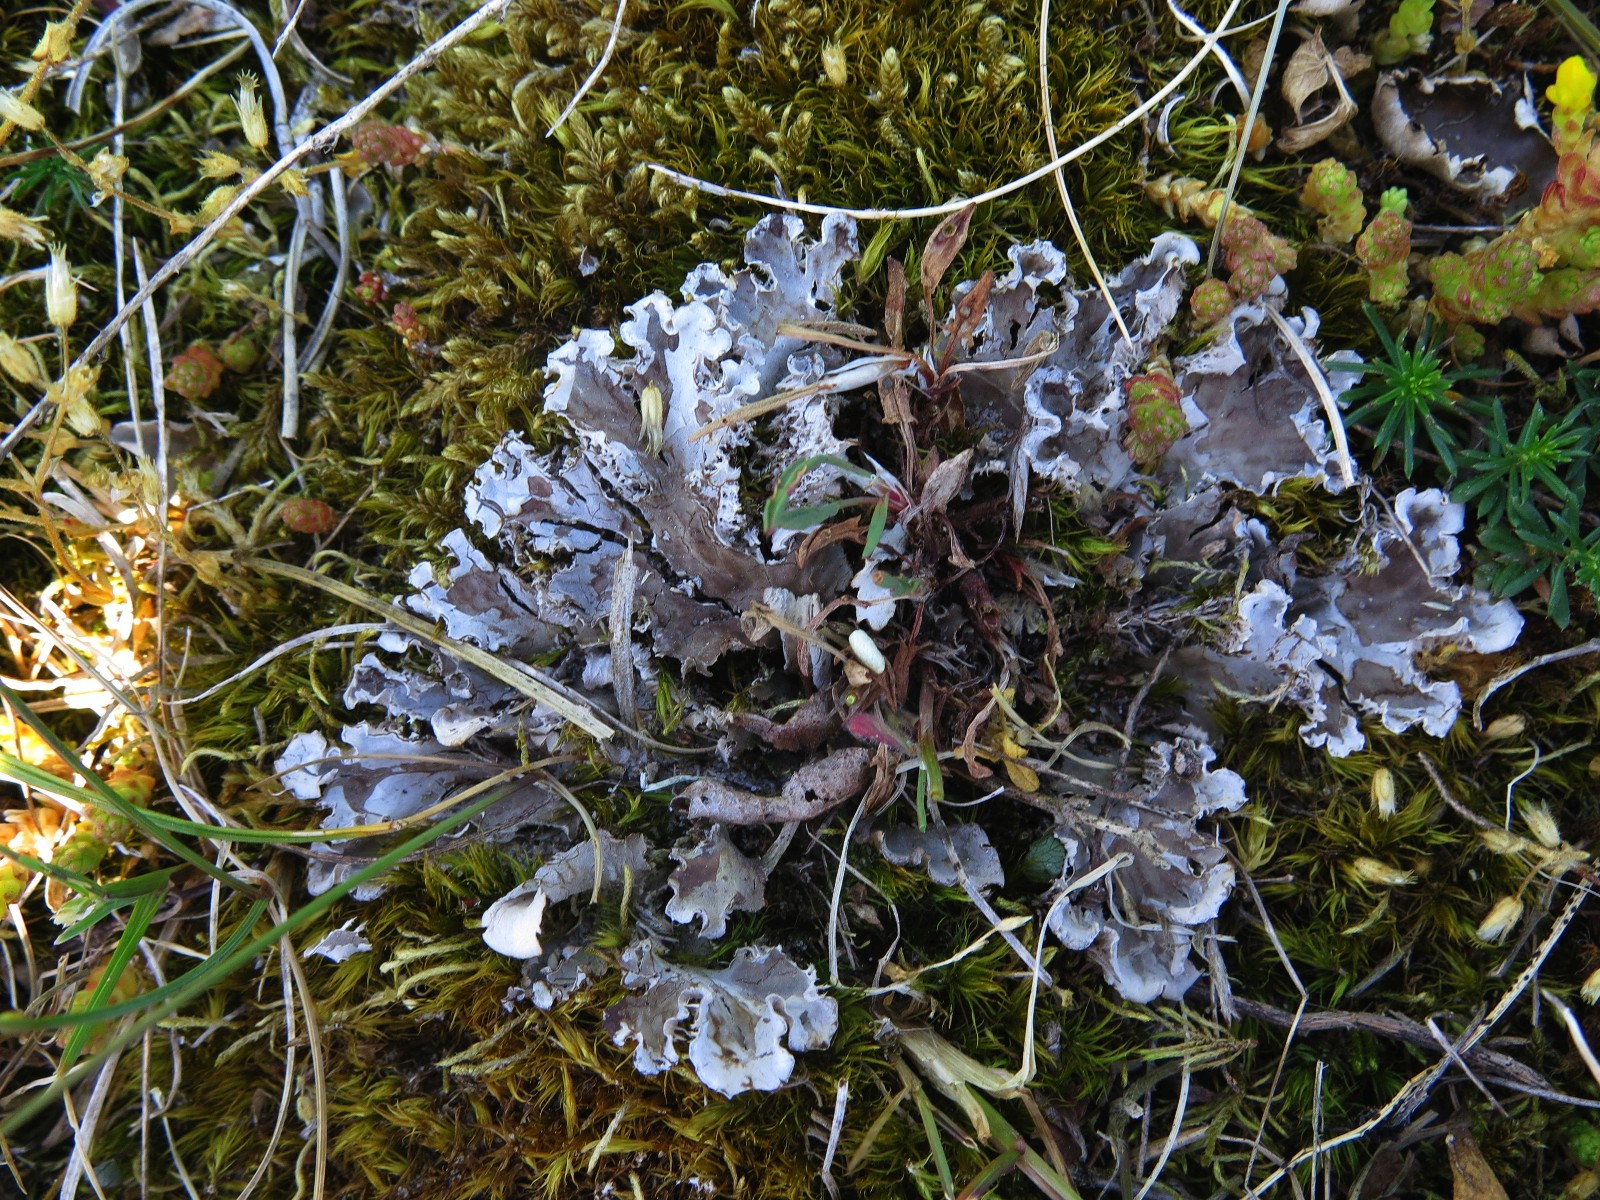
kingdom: Fungi
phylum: Ascomycota
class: Lecanoromycetes
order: Peltigerales
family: Peltigeraceae
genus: Peltigera
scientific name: Peltigera membranacea
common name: tynd skjoldlav
